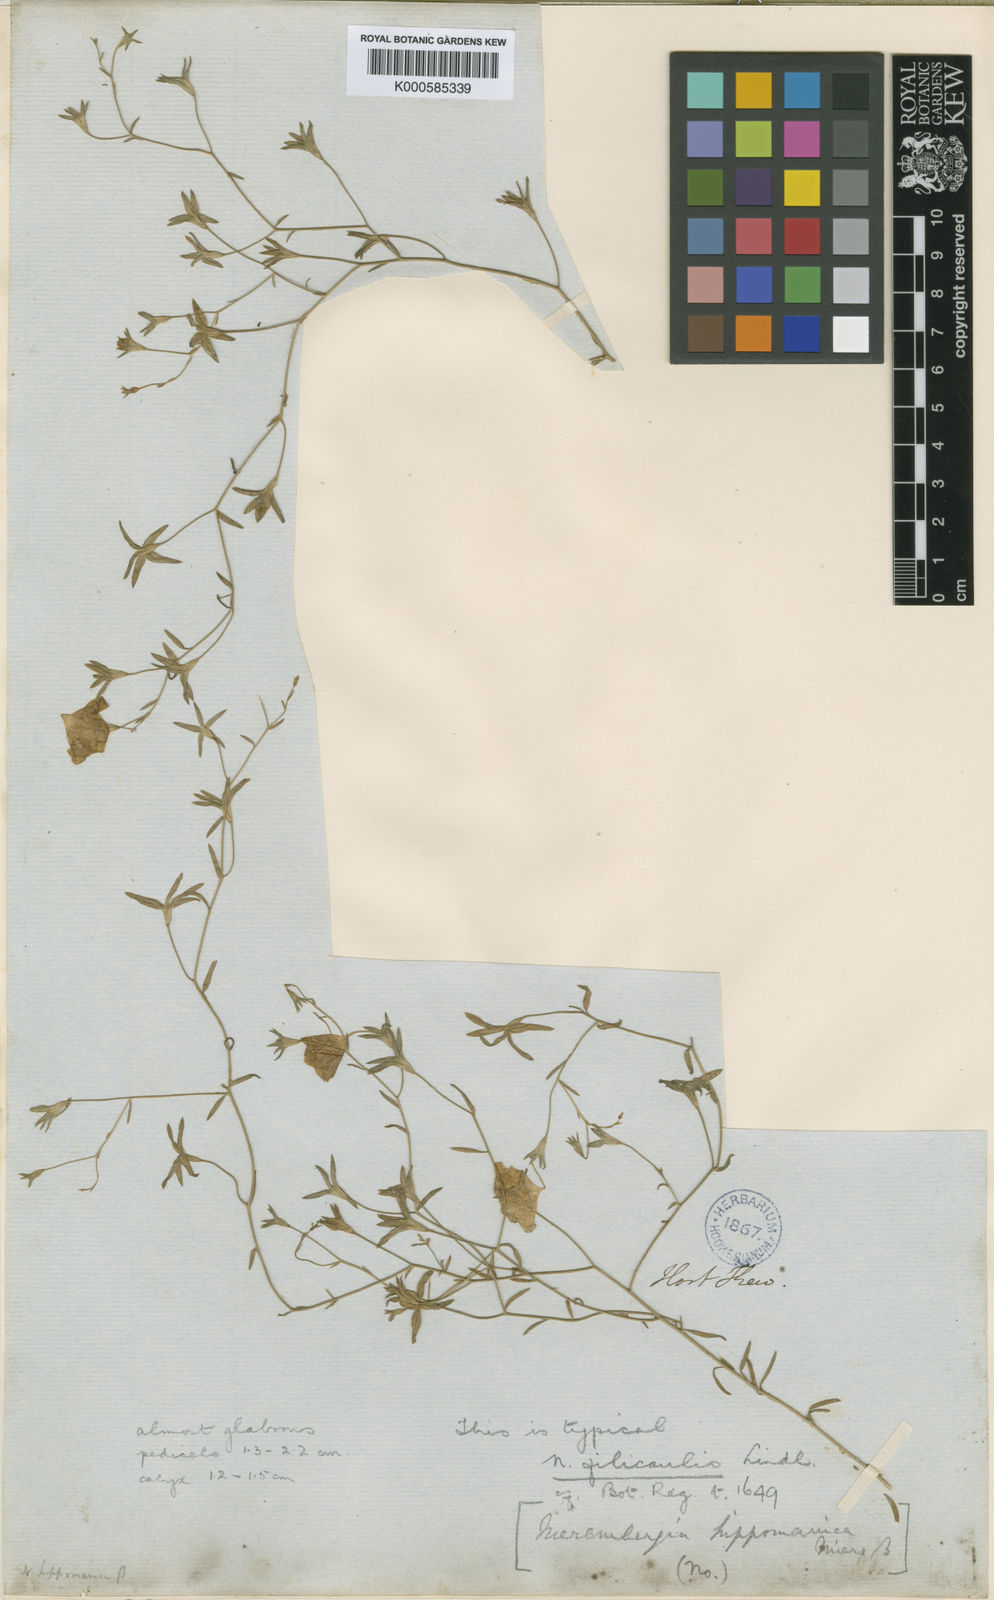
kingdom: Plantae
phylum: Tracheophyta
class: Magnoliopsida
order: Solanales
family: Solanaceae
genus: Nierembergia
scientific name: Nierembergia linariifolia
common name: Dwarf cupflower
